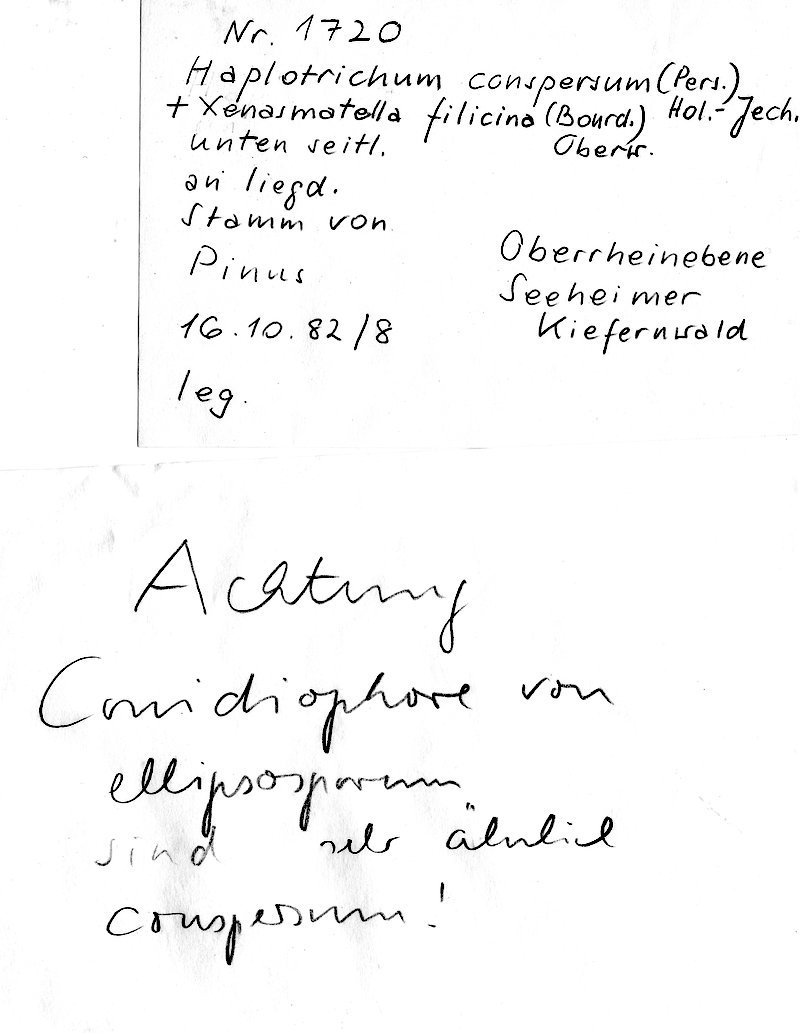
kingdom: Plantae
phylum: Tracheophyta
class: Pinopsida
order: Pinales
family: Pinaceae
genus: Pinus
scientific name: Pinus
